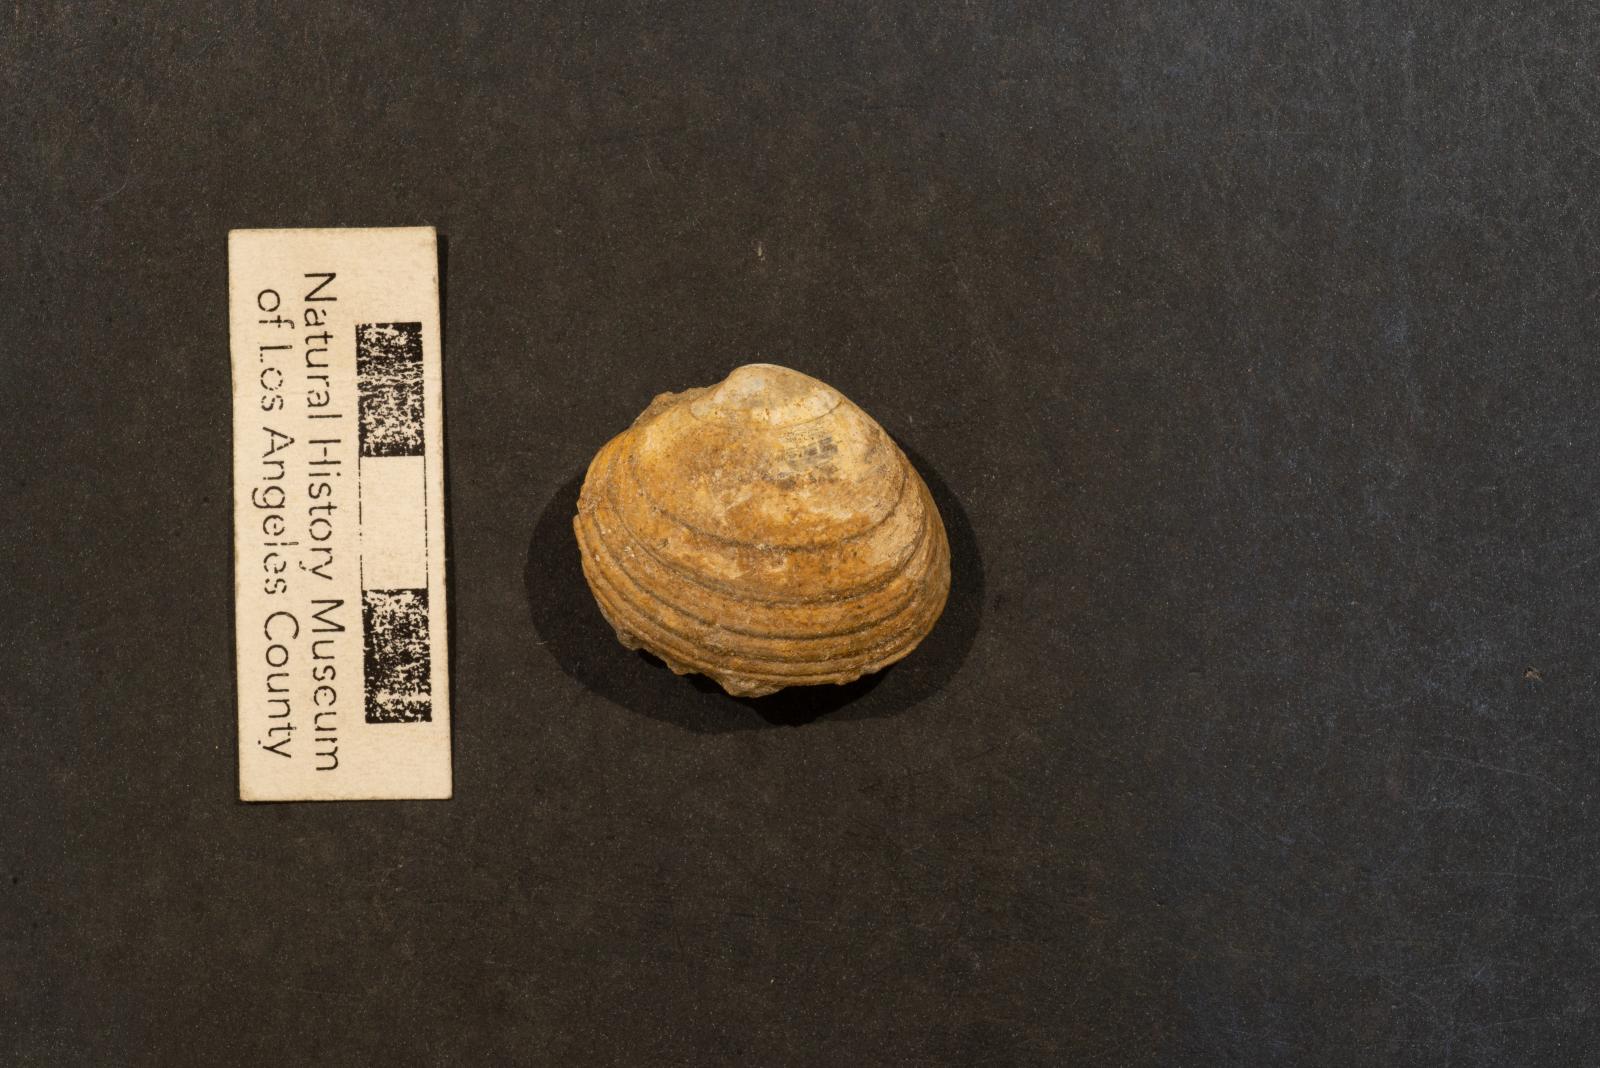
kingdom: Animalia
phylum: Mollusca
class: Bivalvia
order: Venerida
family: Veneridae
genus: Paraesa
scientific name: Paraesa Meretrix lens
